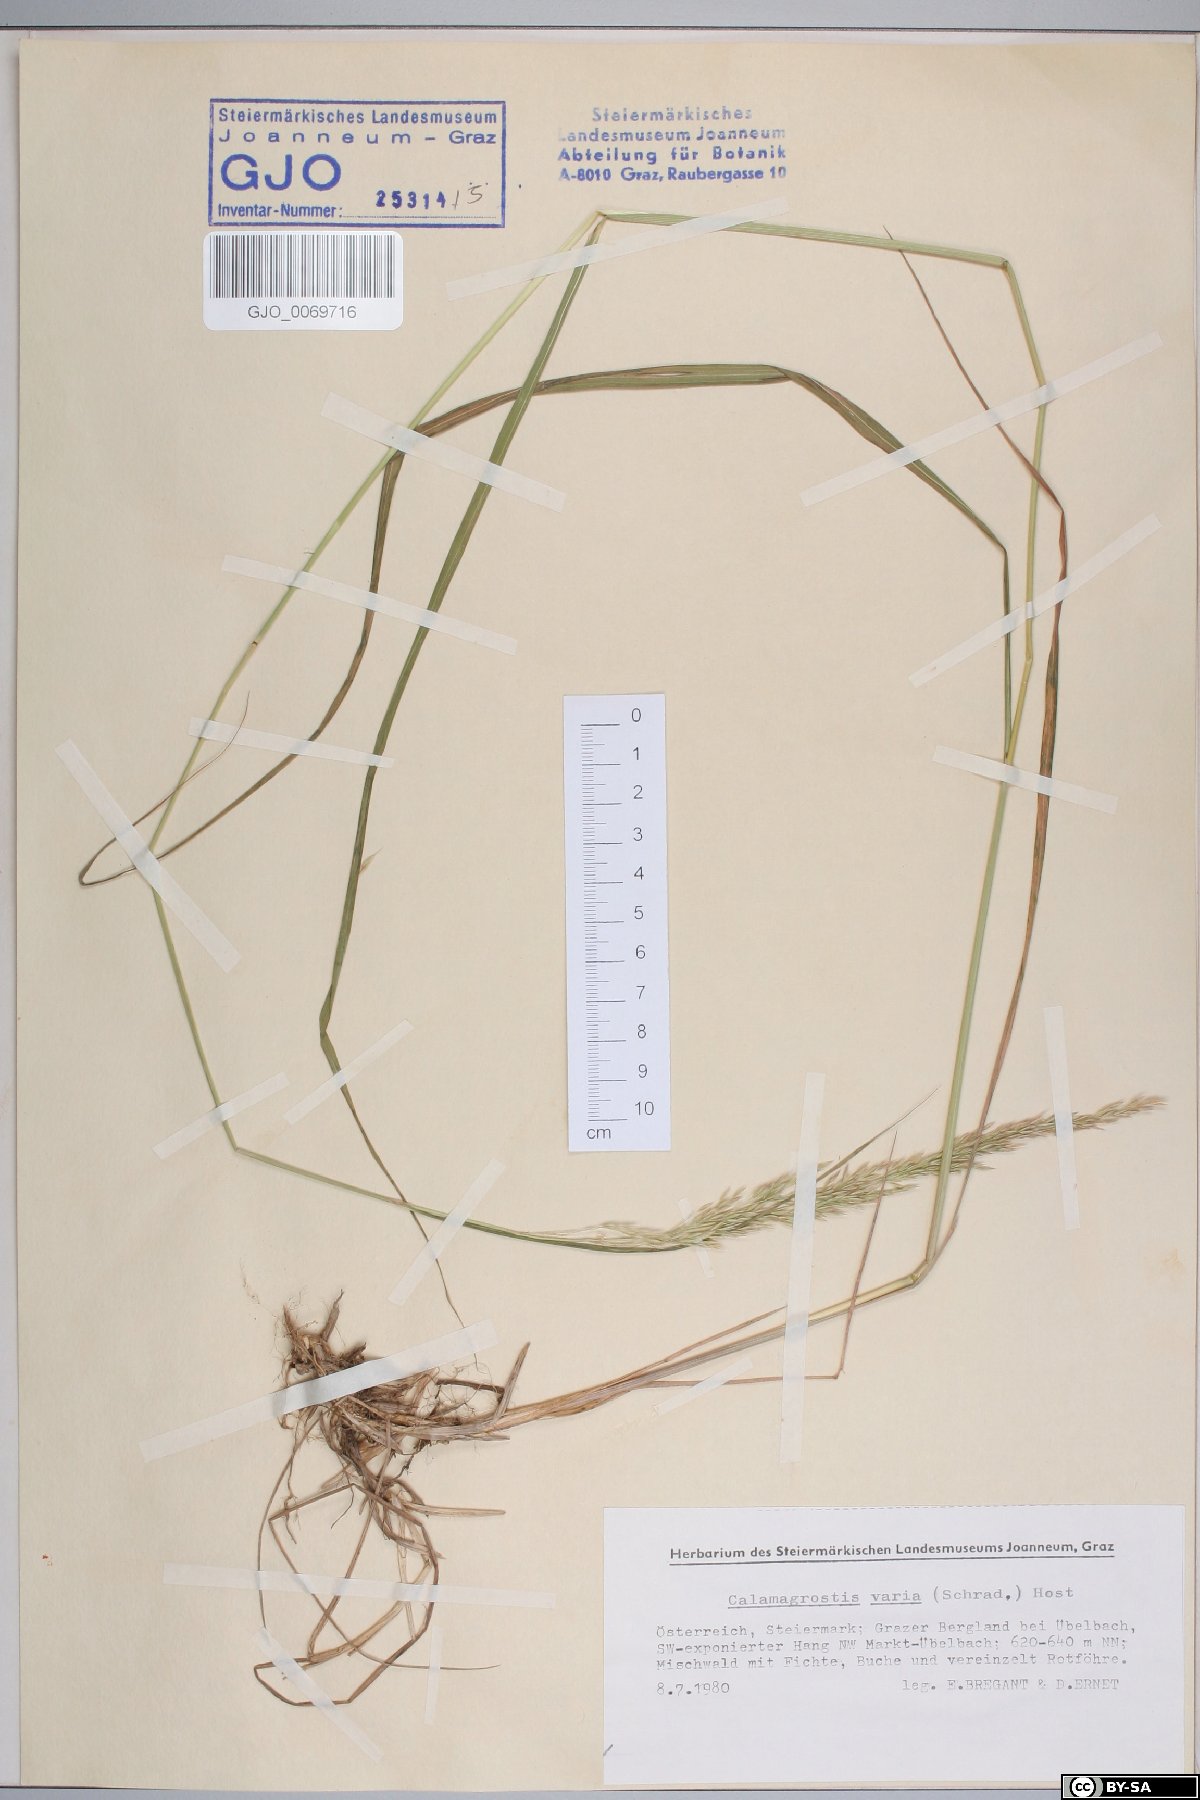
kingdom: Plantae
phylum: Tracheophyta
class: Liliopsida
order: Poales
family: Poaceae
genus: Calamagrostis
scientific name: Calamagrostis varia
